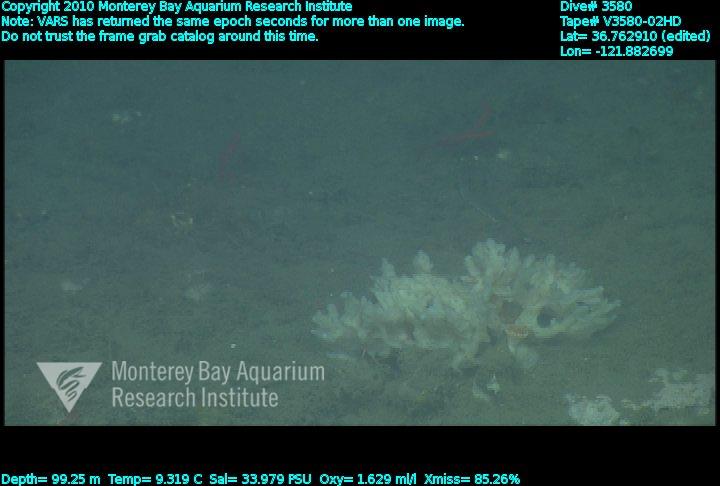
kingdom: Animalia
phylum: Porifera
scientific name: Porifera
